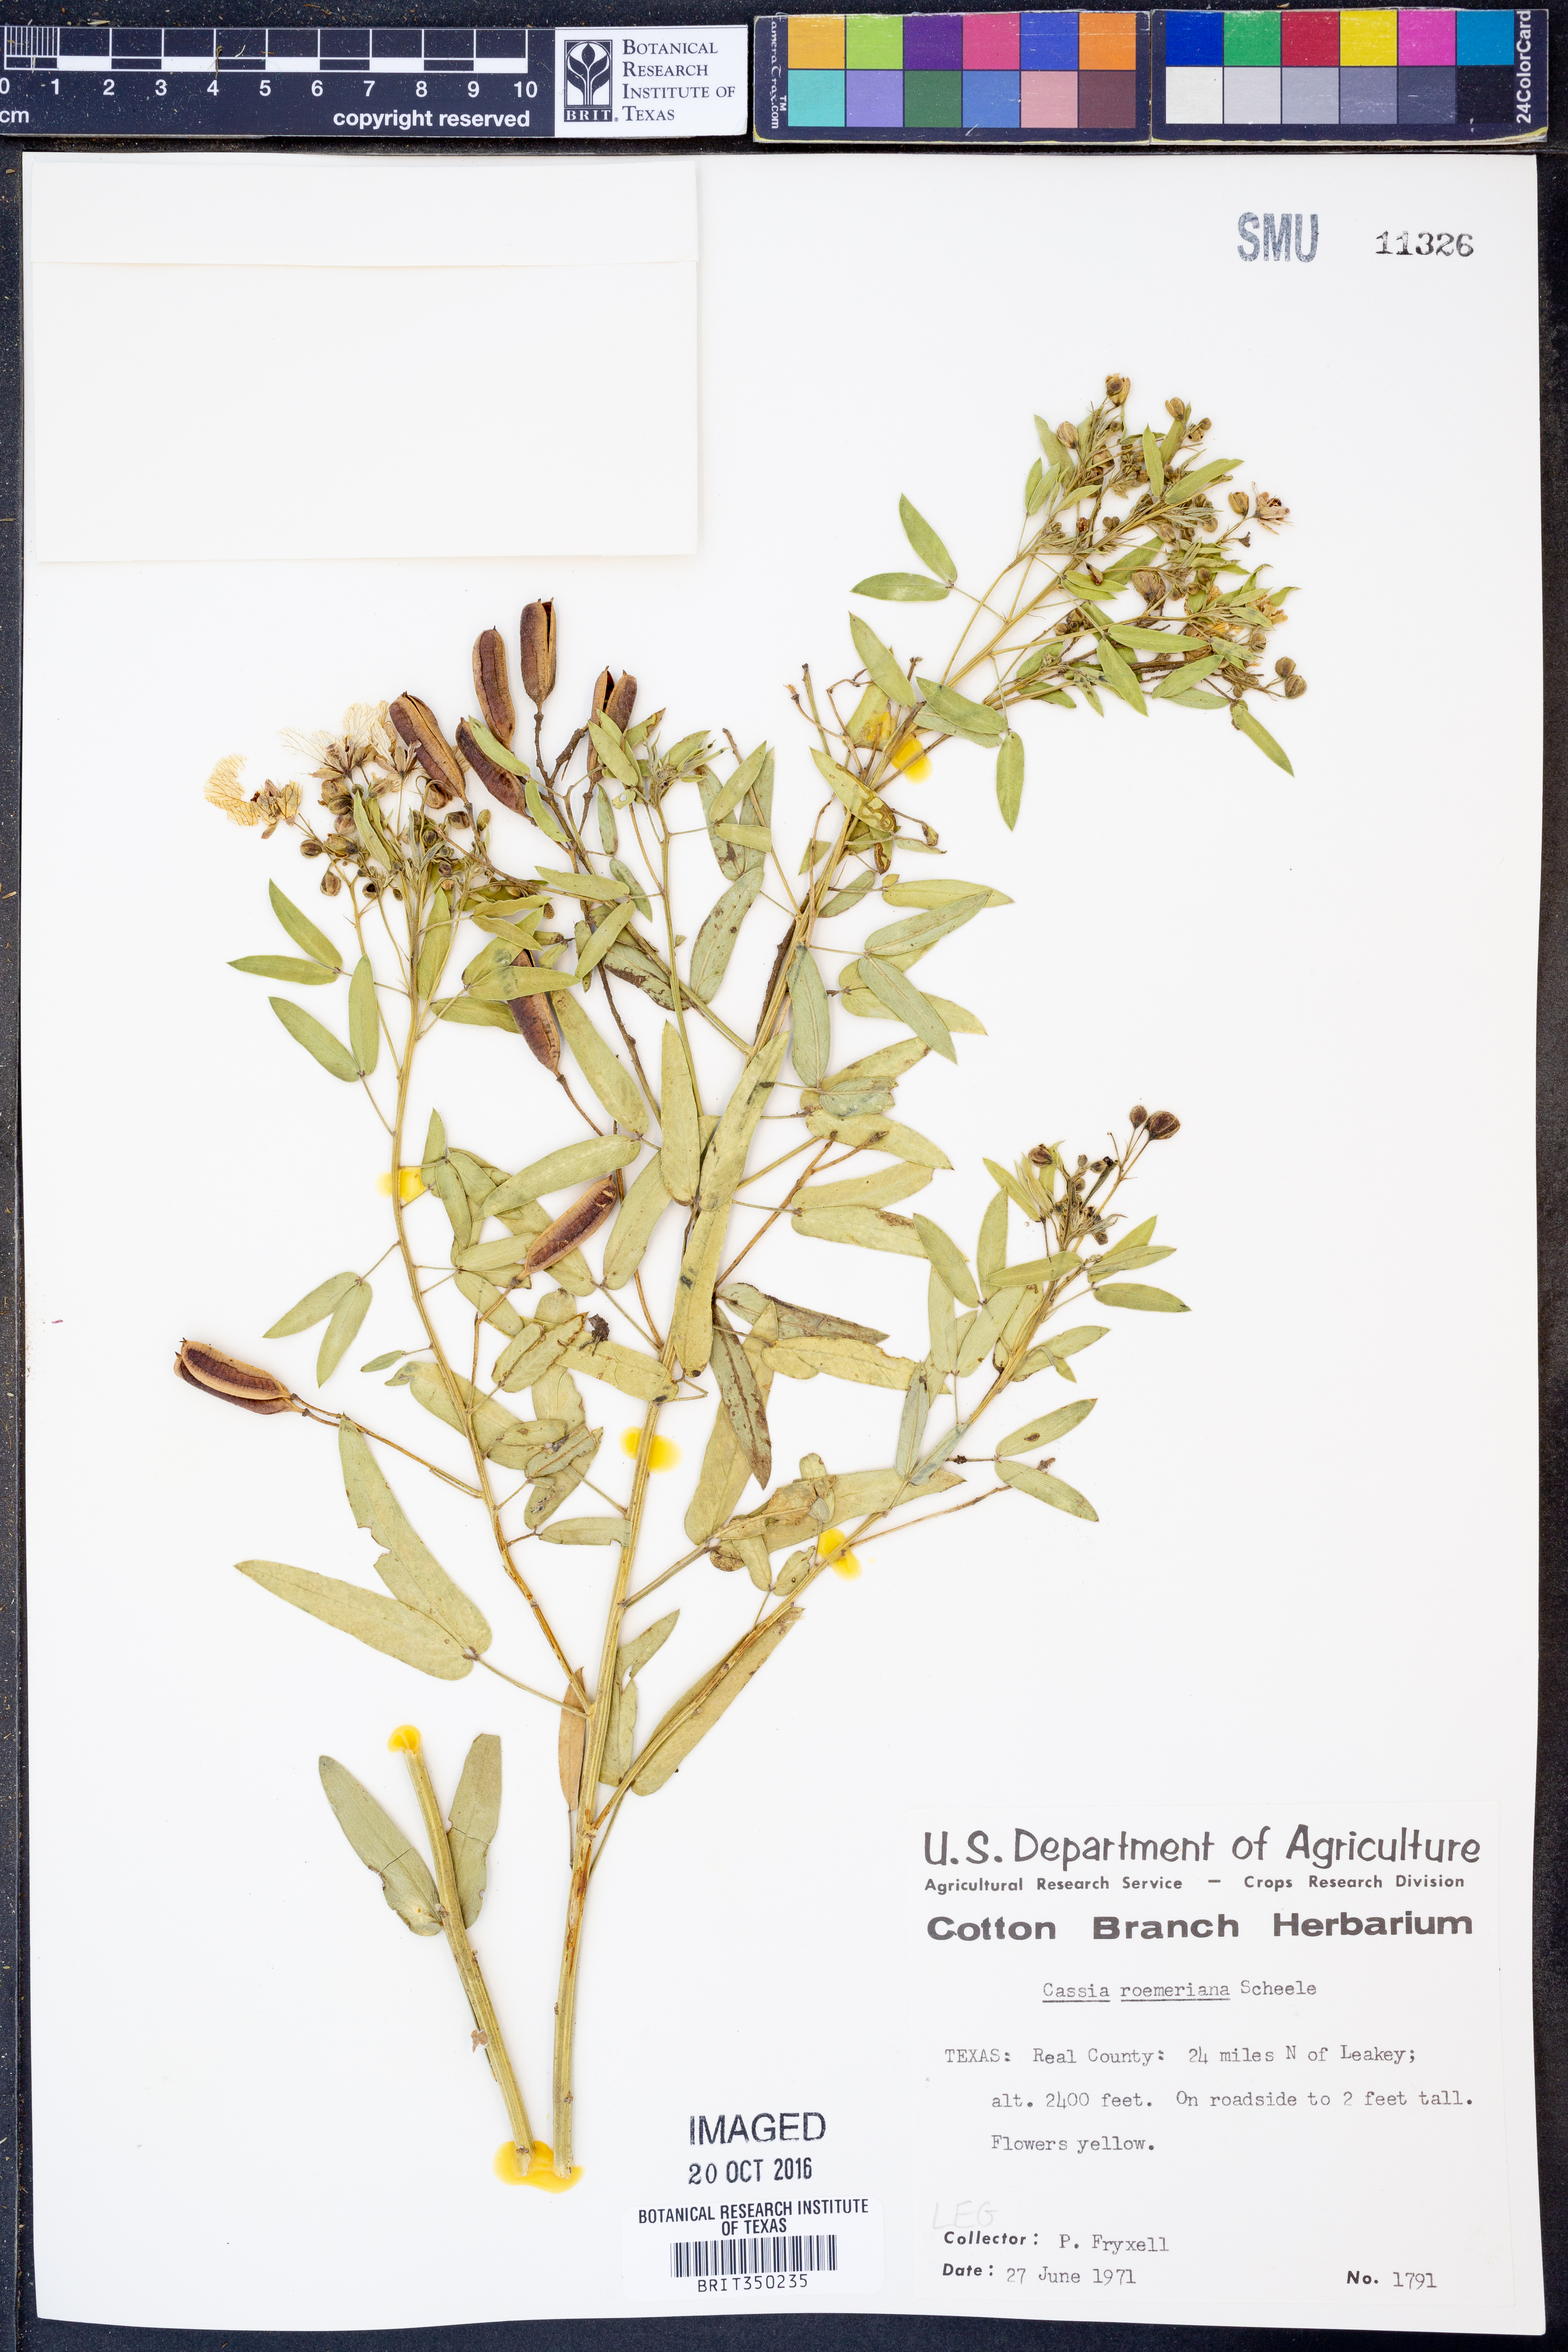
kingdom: Plantae
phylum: Tracheophyta
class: Magnoliopsida
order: Fabales
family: Fabaceae
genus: Senna
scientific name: Senna roemeriana
